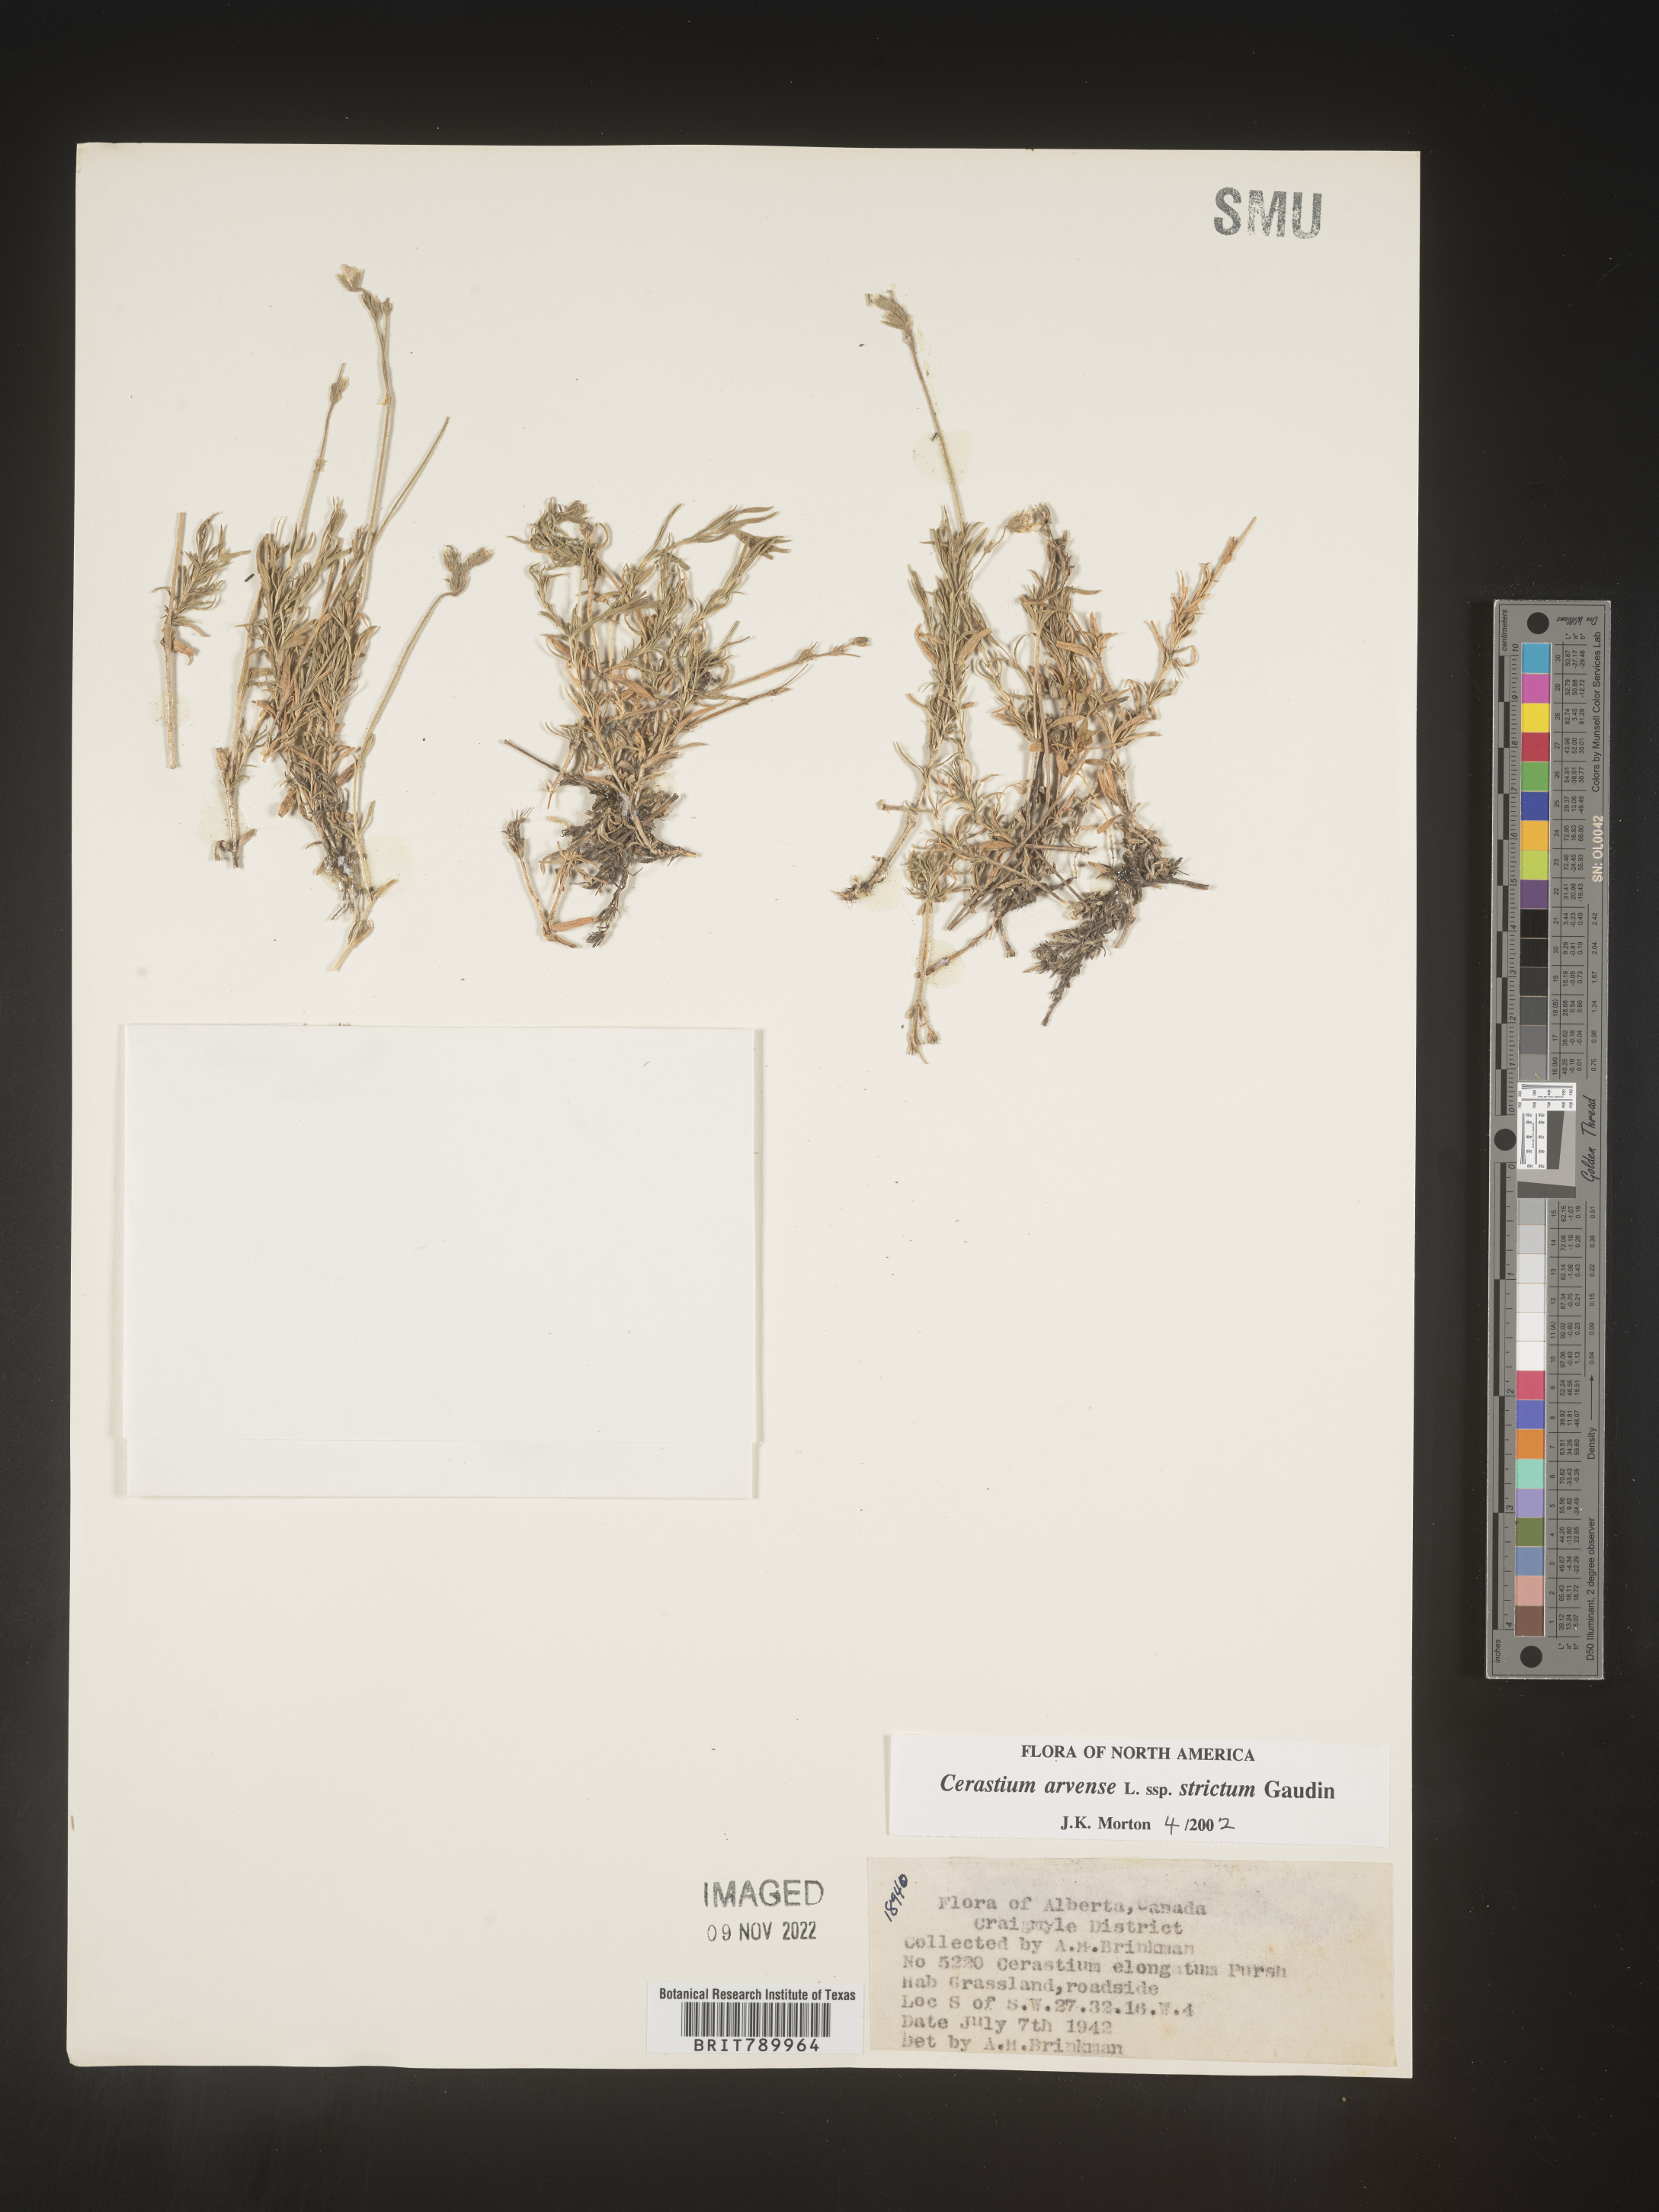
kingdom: Plantae
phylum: Tracheophyta
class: Magnoliopsida
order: Caryophyllales
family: Caryophyllaceae
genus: Cerastium
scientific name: Cerastium arvense
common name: Field mouse-ear
